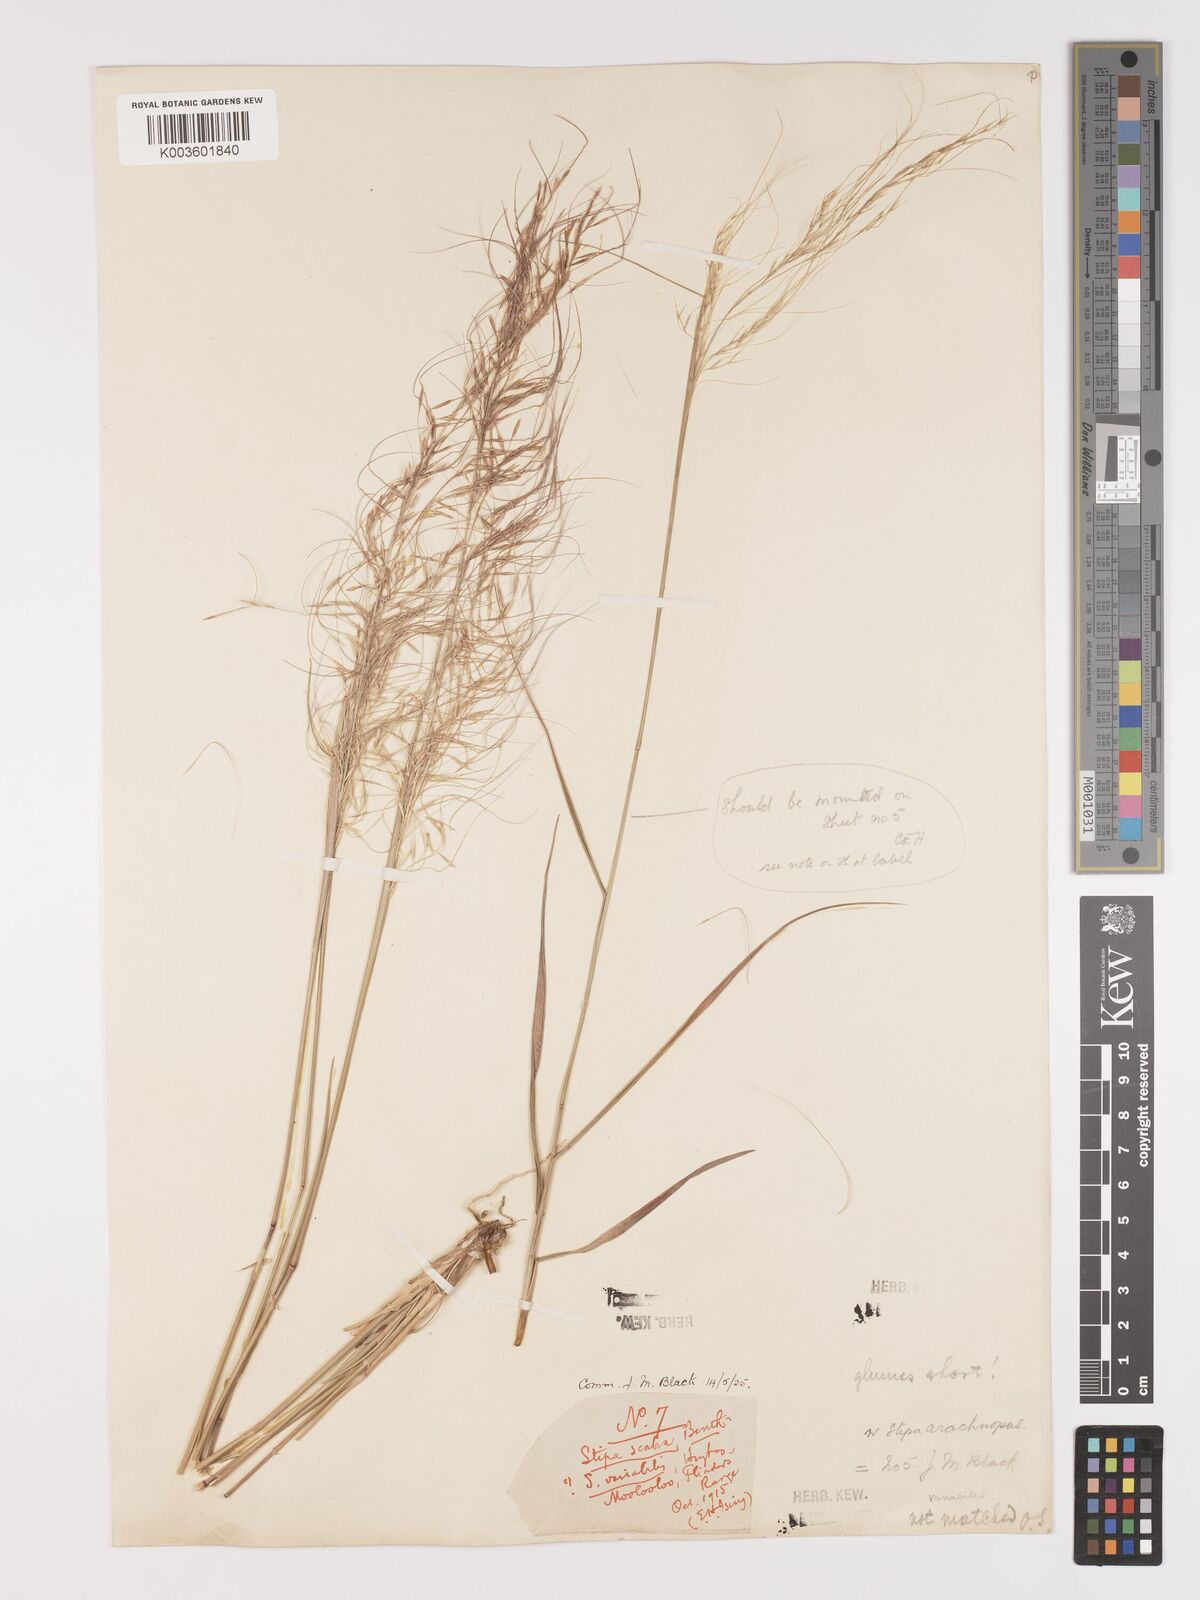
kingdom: Plantae
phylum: Tracheophyta
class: Liliopsida
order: Poales
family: Poaceae
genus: Austrostipa
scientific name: Austrostipa nitida
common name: Balcarra grass
